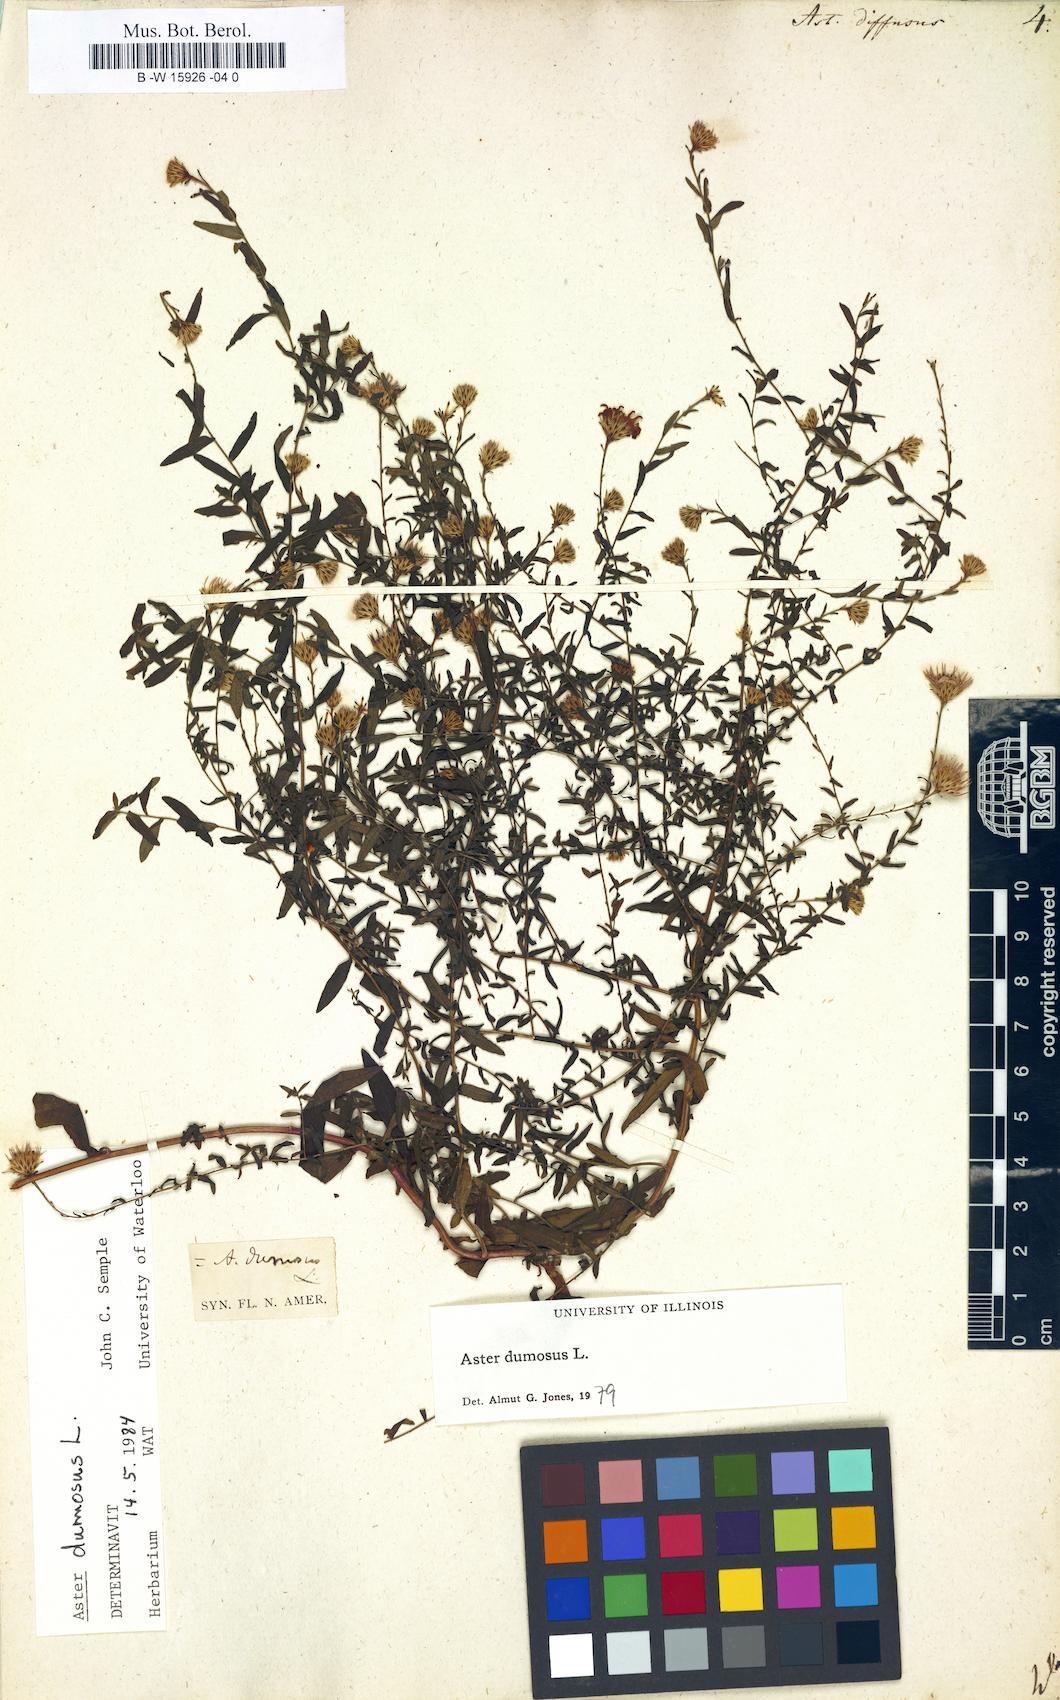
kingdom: Plantae
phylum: Tracheophyta
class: Magnoliopsida
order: Asterales
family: Asteraceae
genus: Aster
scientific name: Aster diffusus
